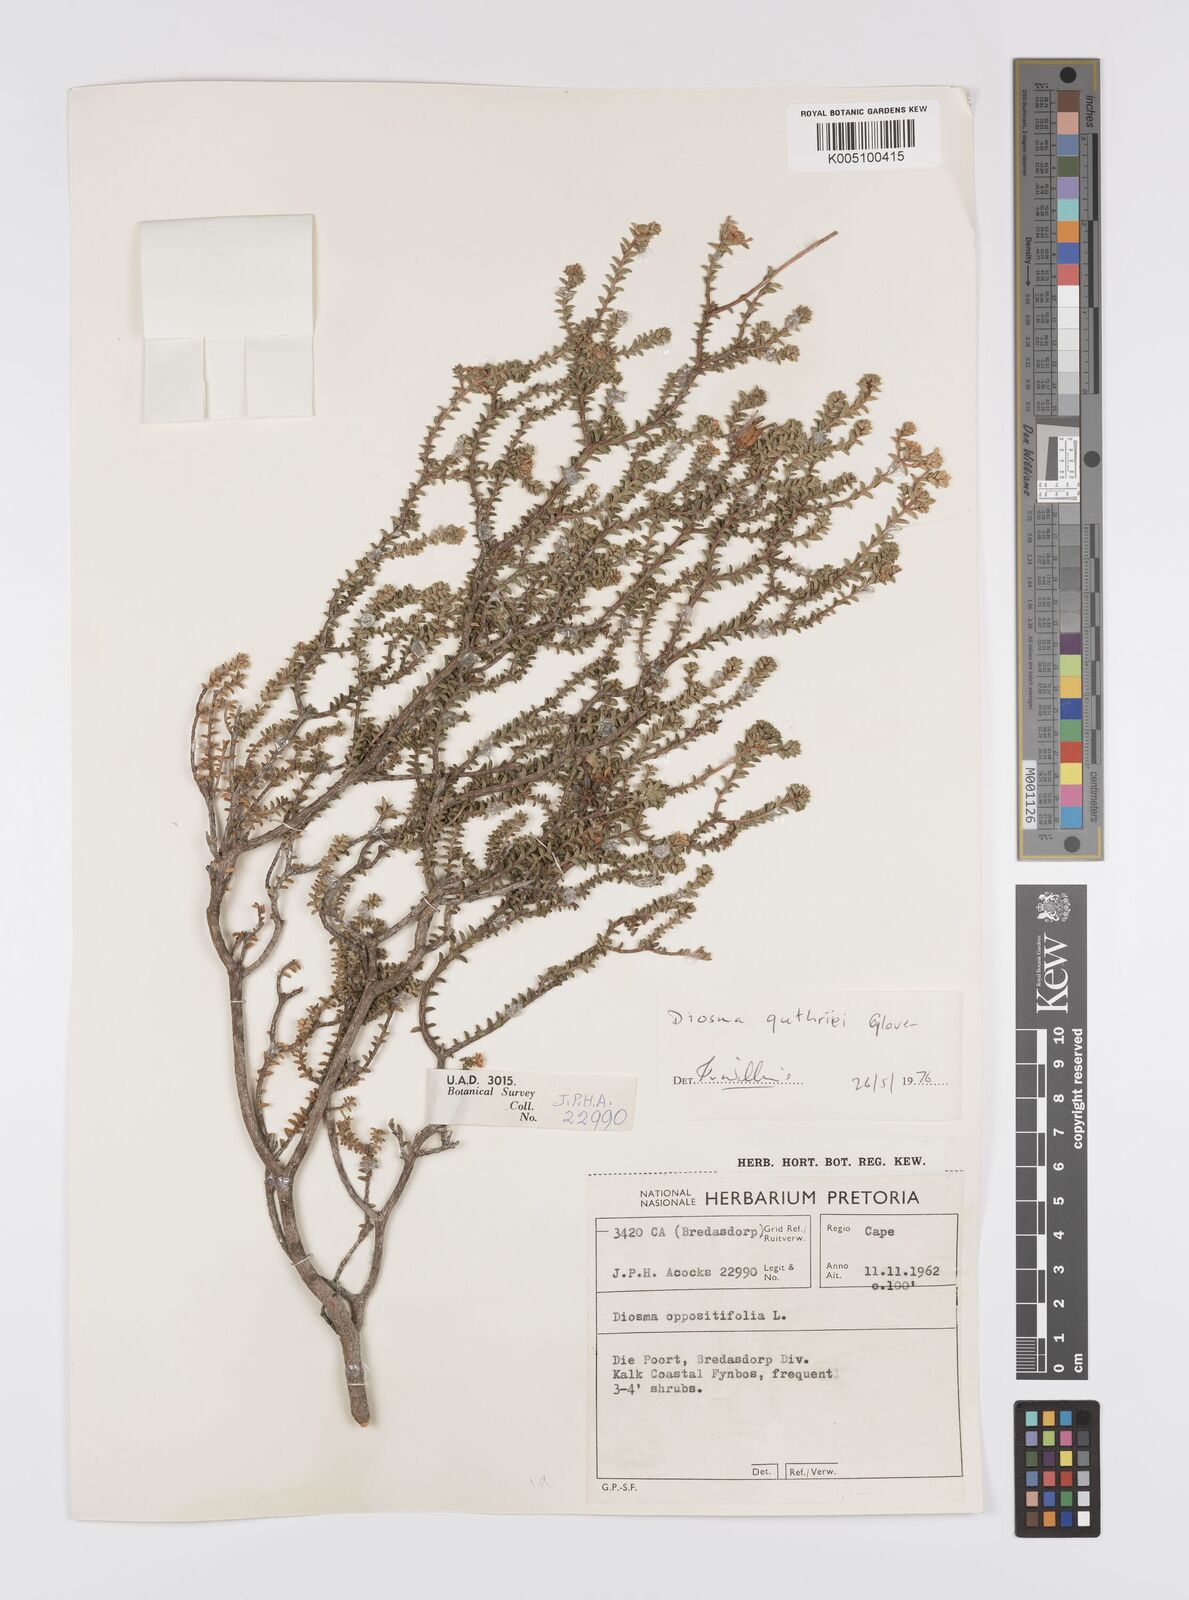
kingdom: Plantae
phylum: Tracheophyta
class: Magnoliopsida
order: Sapindales
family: Rutaceae
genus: Diosma
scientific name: Diosma guthriei
